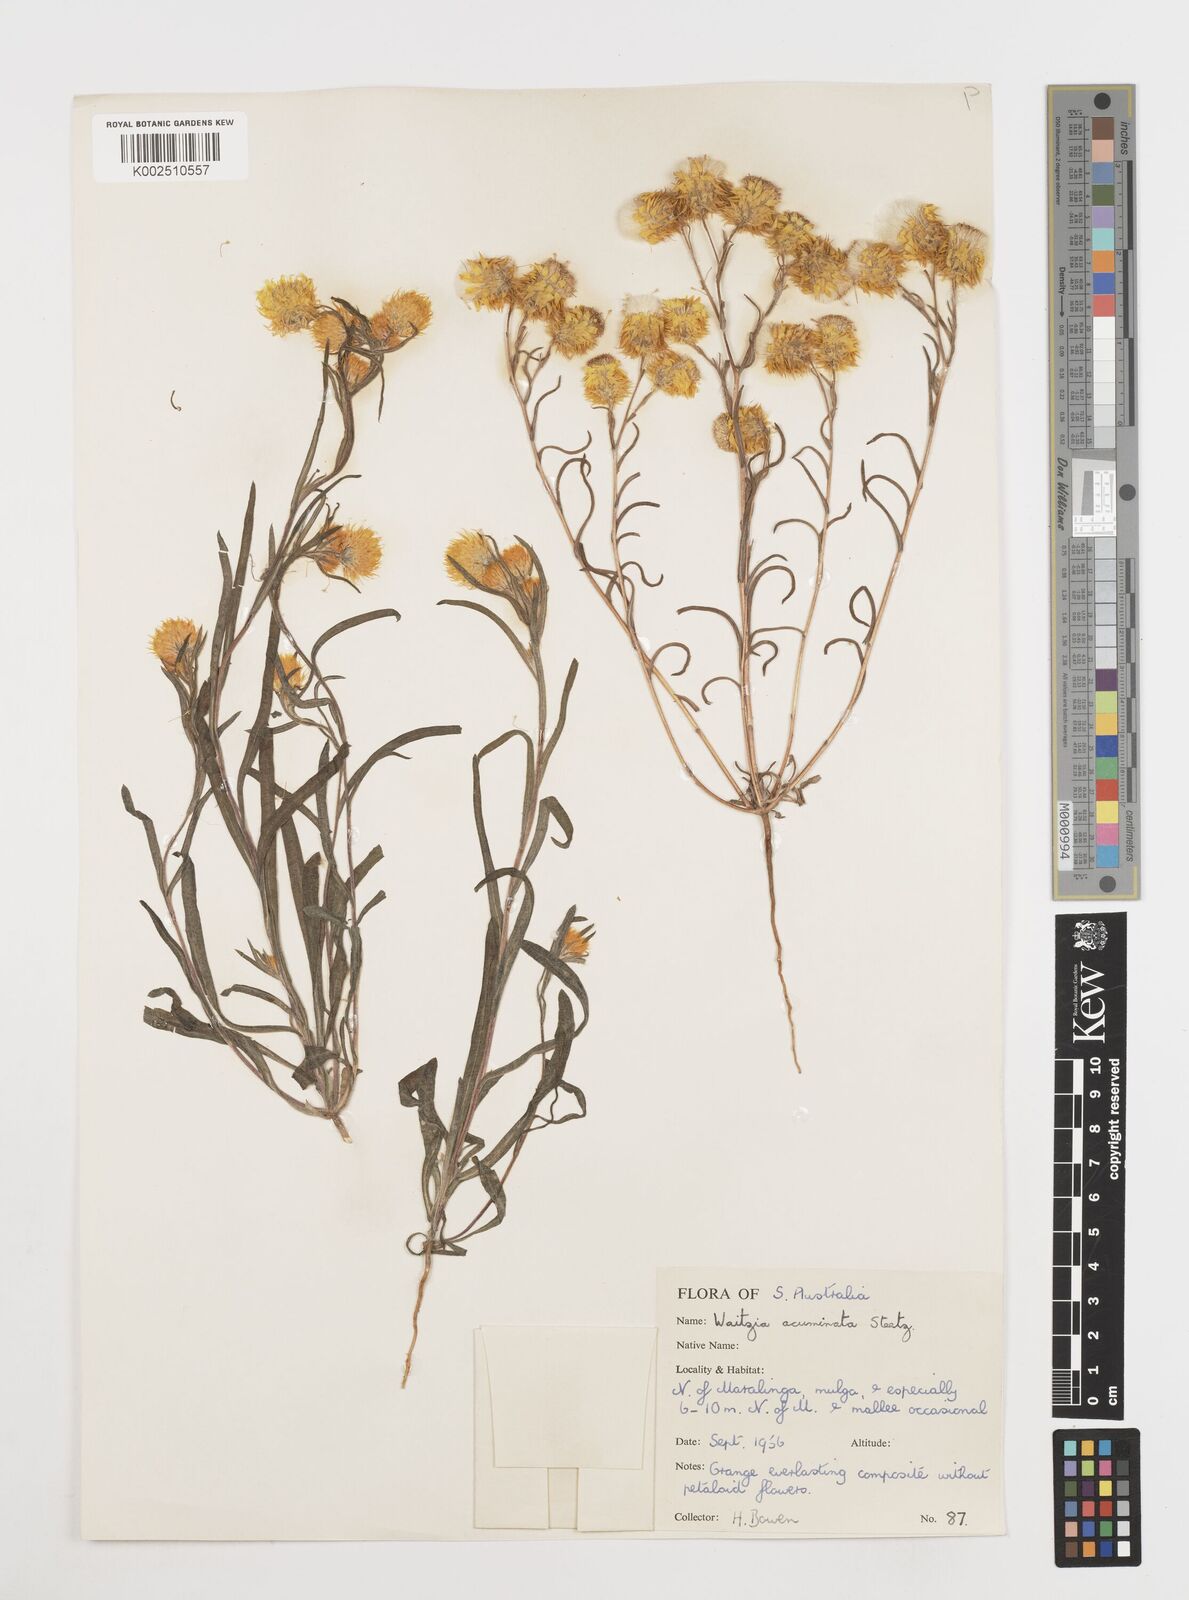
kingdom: Plantae
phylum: Tracheophyta
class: Magnoliopsida
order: Asterales
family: Asteraceae
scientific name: Asteraceae
